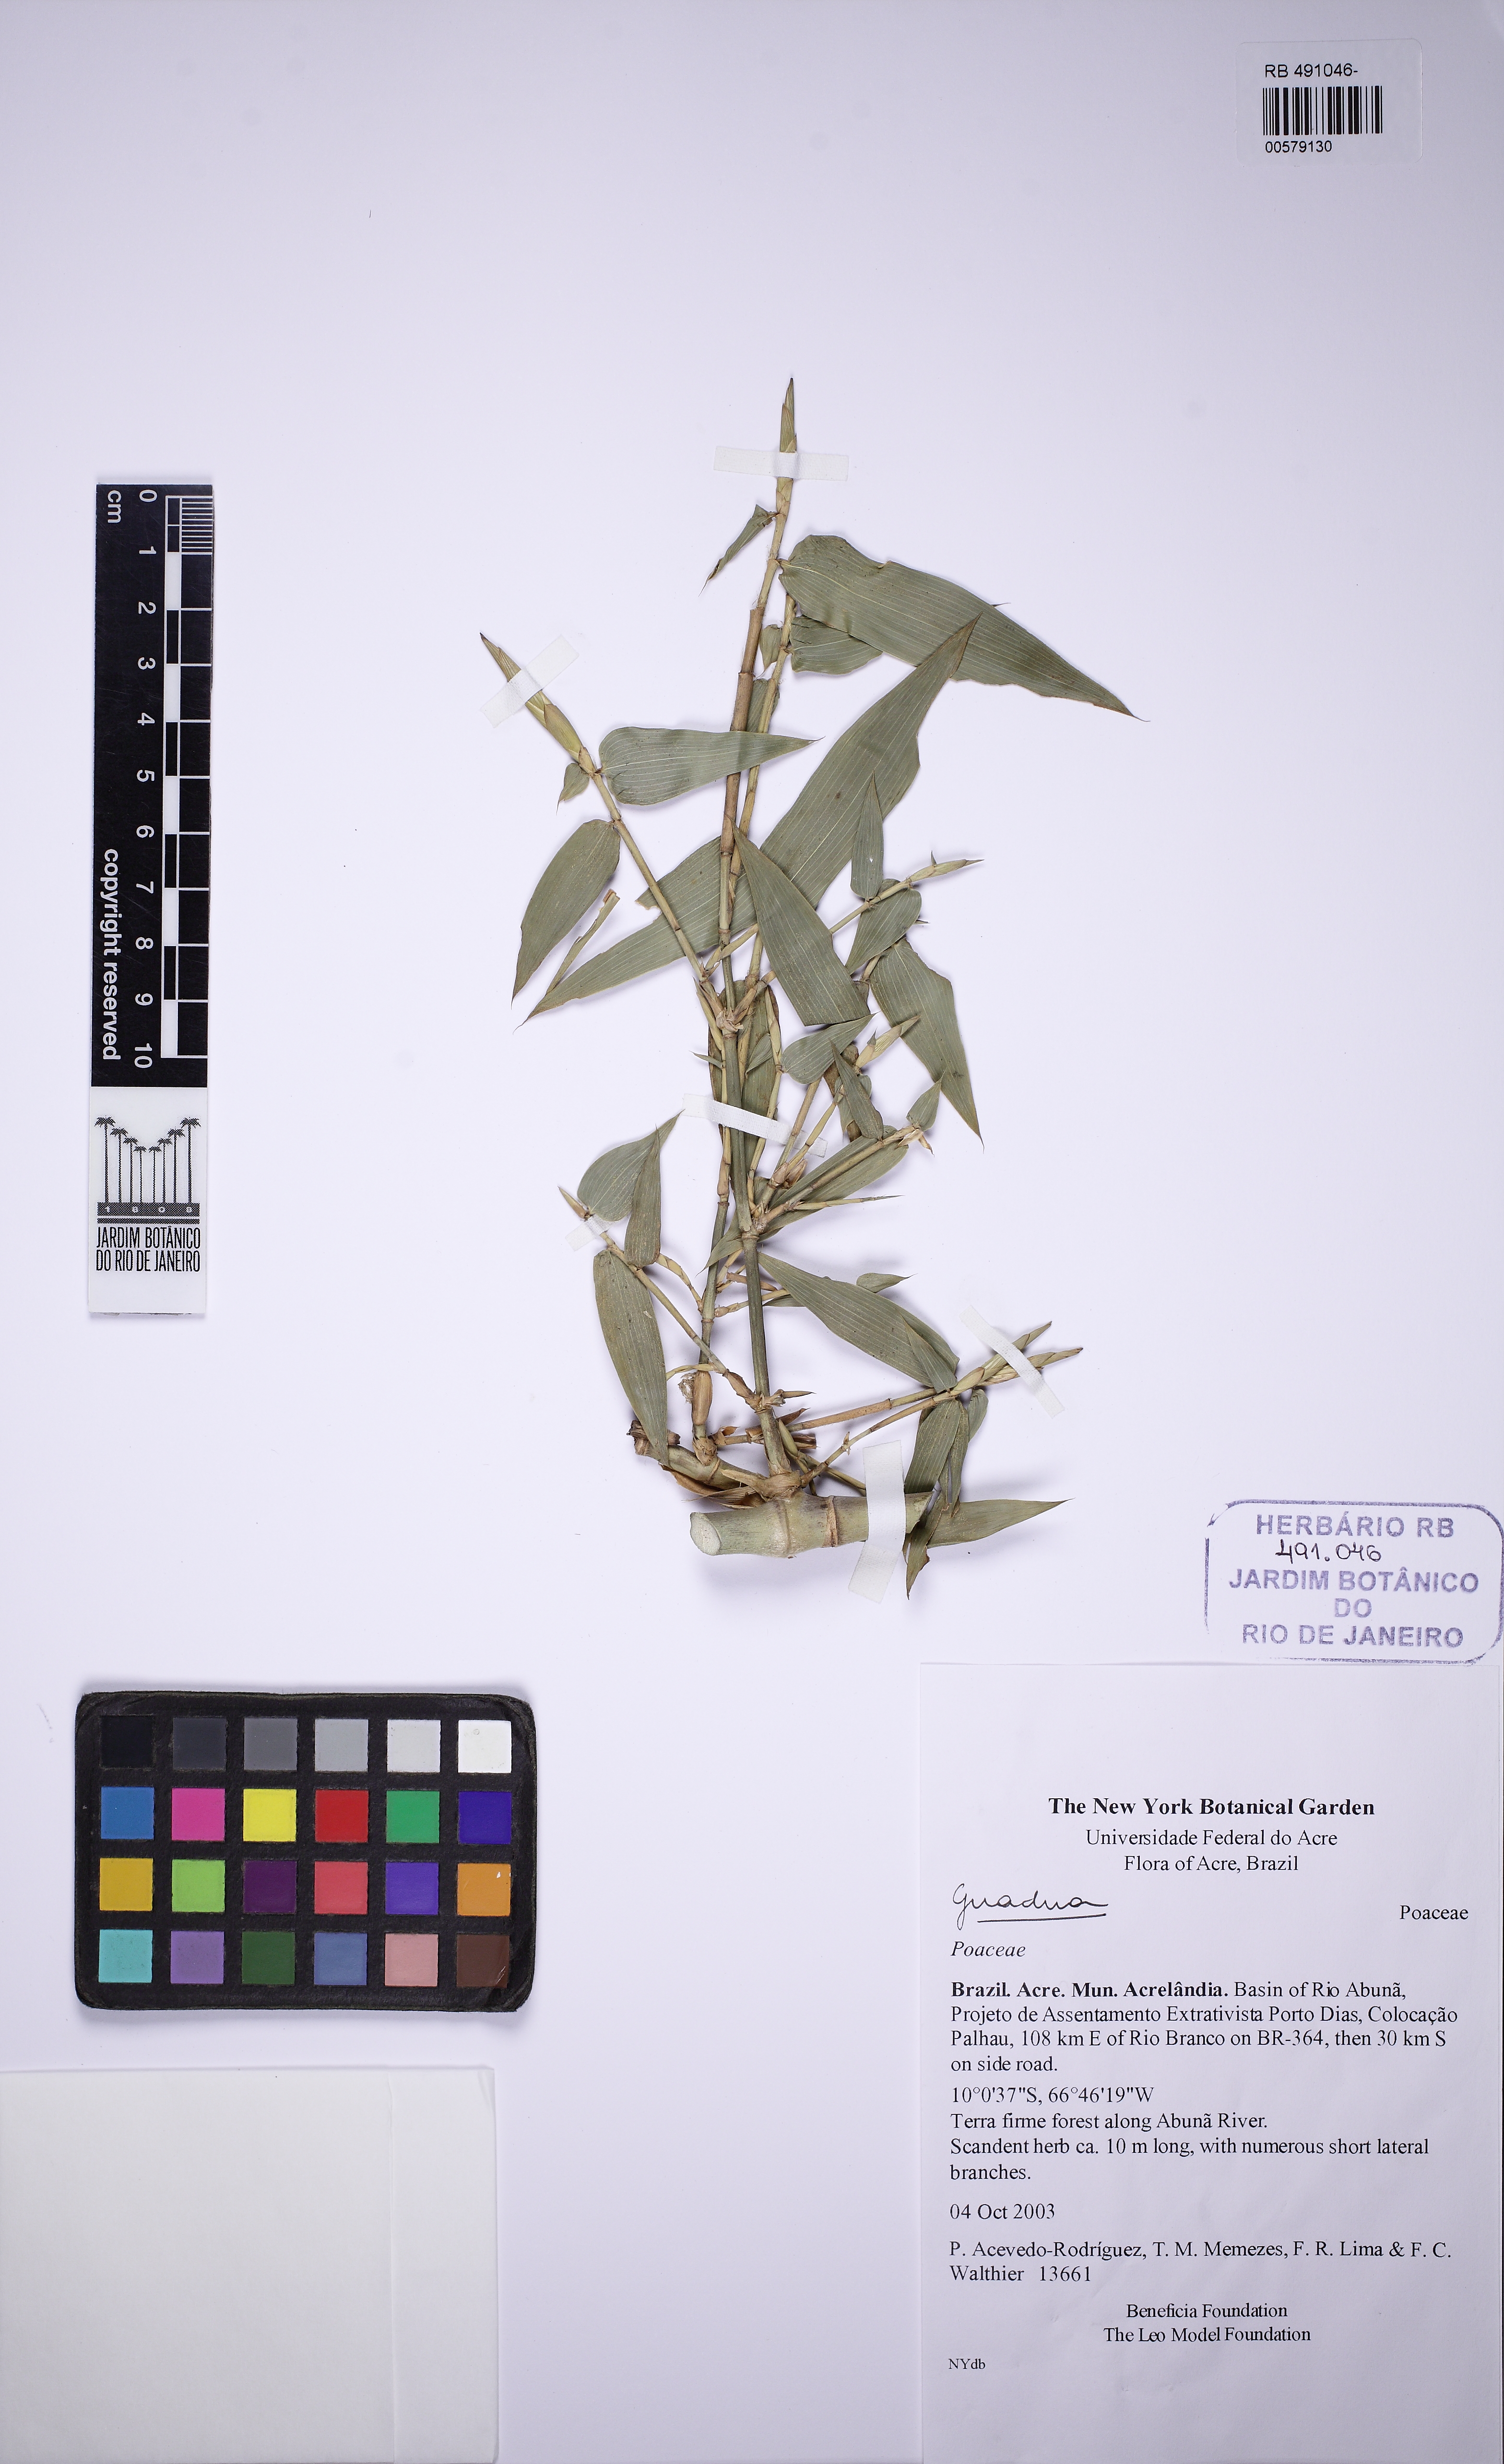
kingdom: Plantae
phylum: Tracheophyta
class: Liliopsida
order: Poales
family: Poaceae
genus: Guadua
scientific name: Guadua macrospiculata
